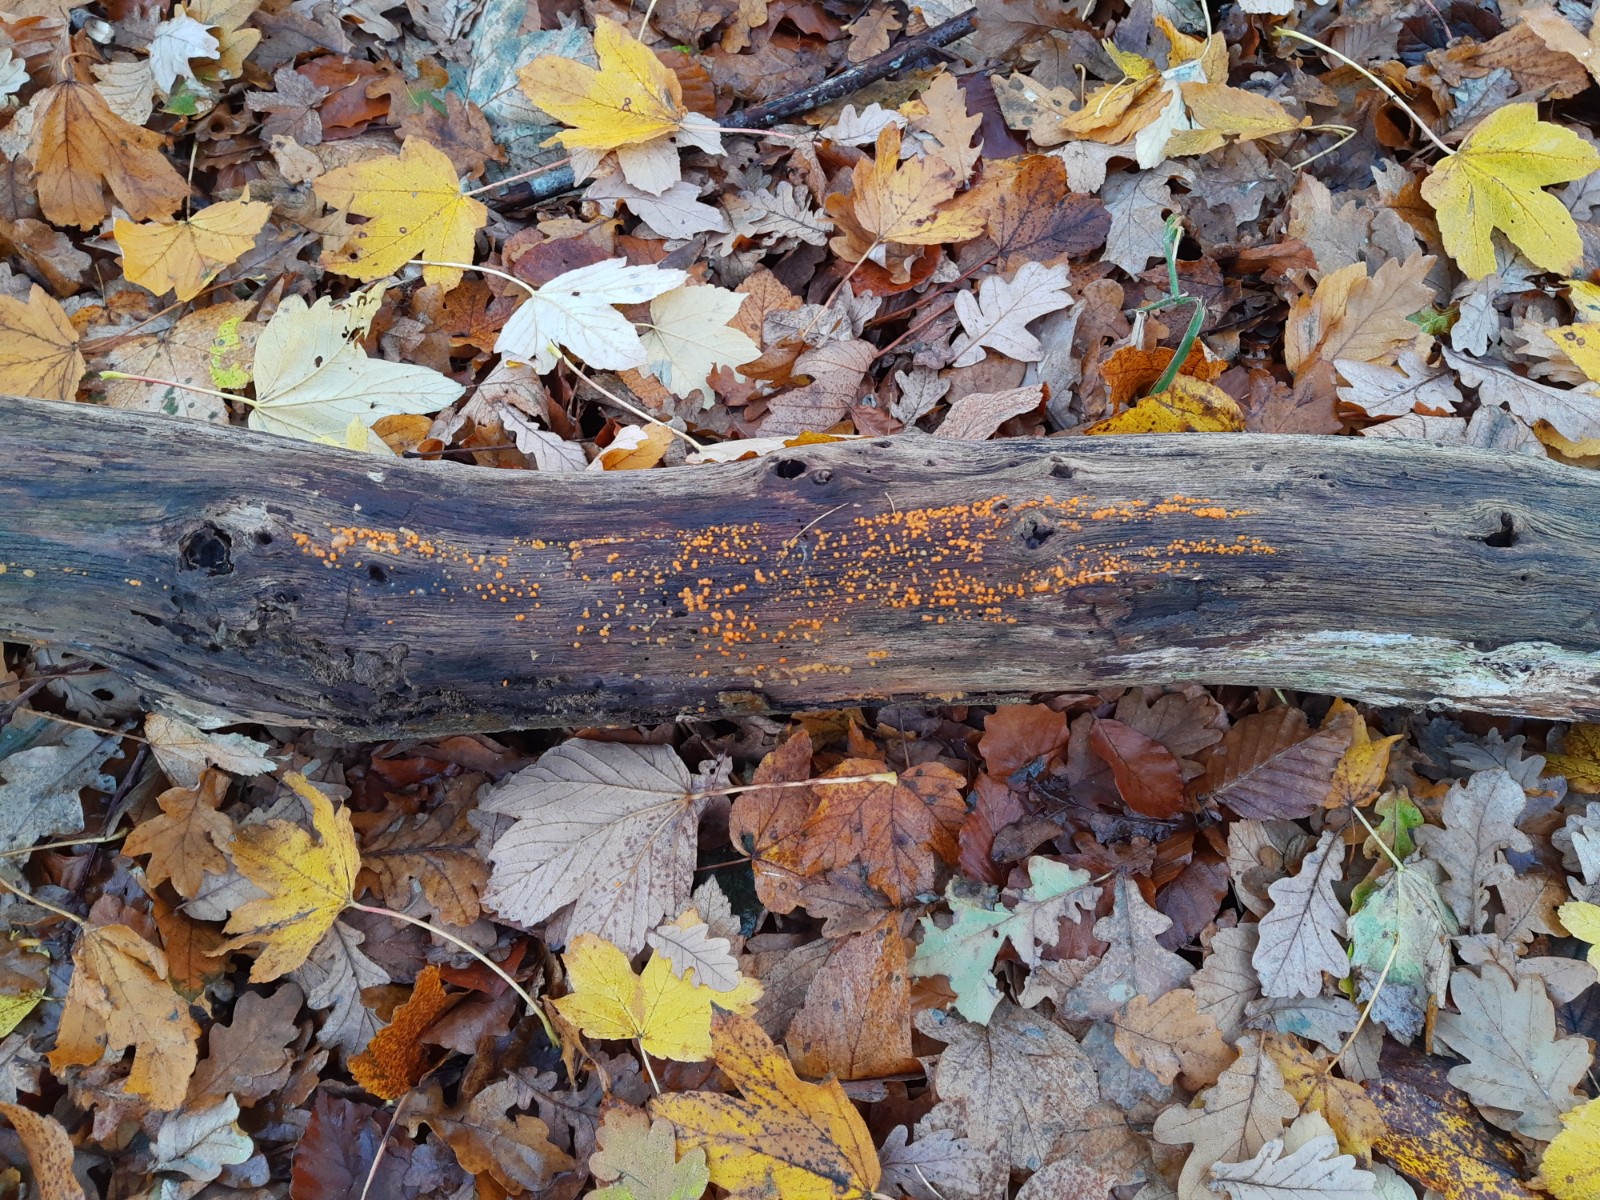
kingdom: Fungi
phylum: Basidiomycota
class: Dacrymycetes
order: Dacrymycetales
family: Dacrymycetaceae
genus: Dacrymyces
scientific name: Dacrymyces stillatus
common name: almindelig tåresvamp
